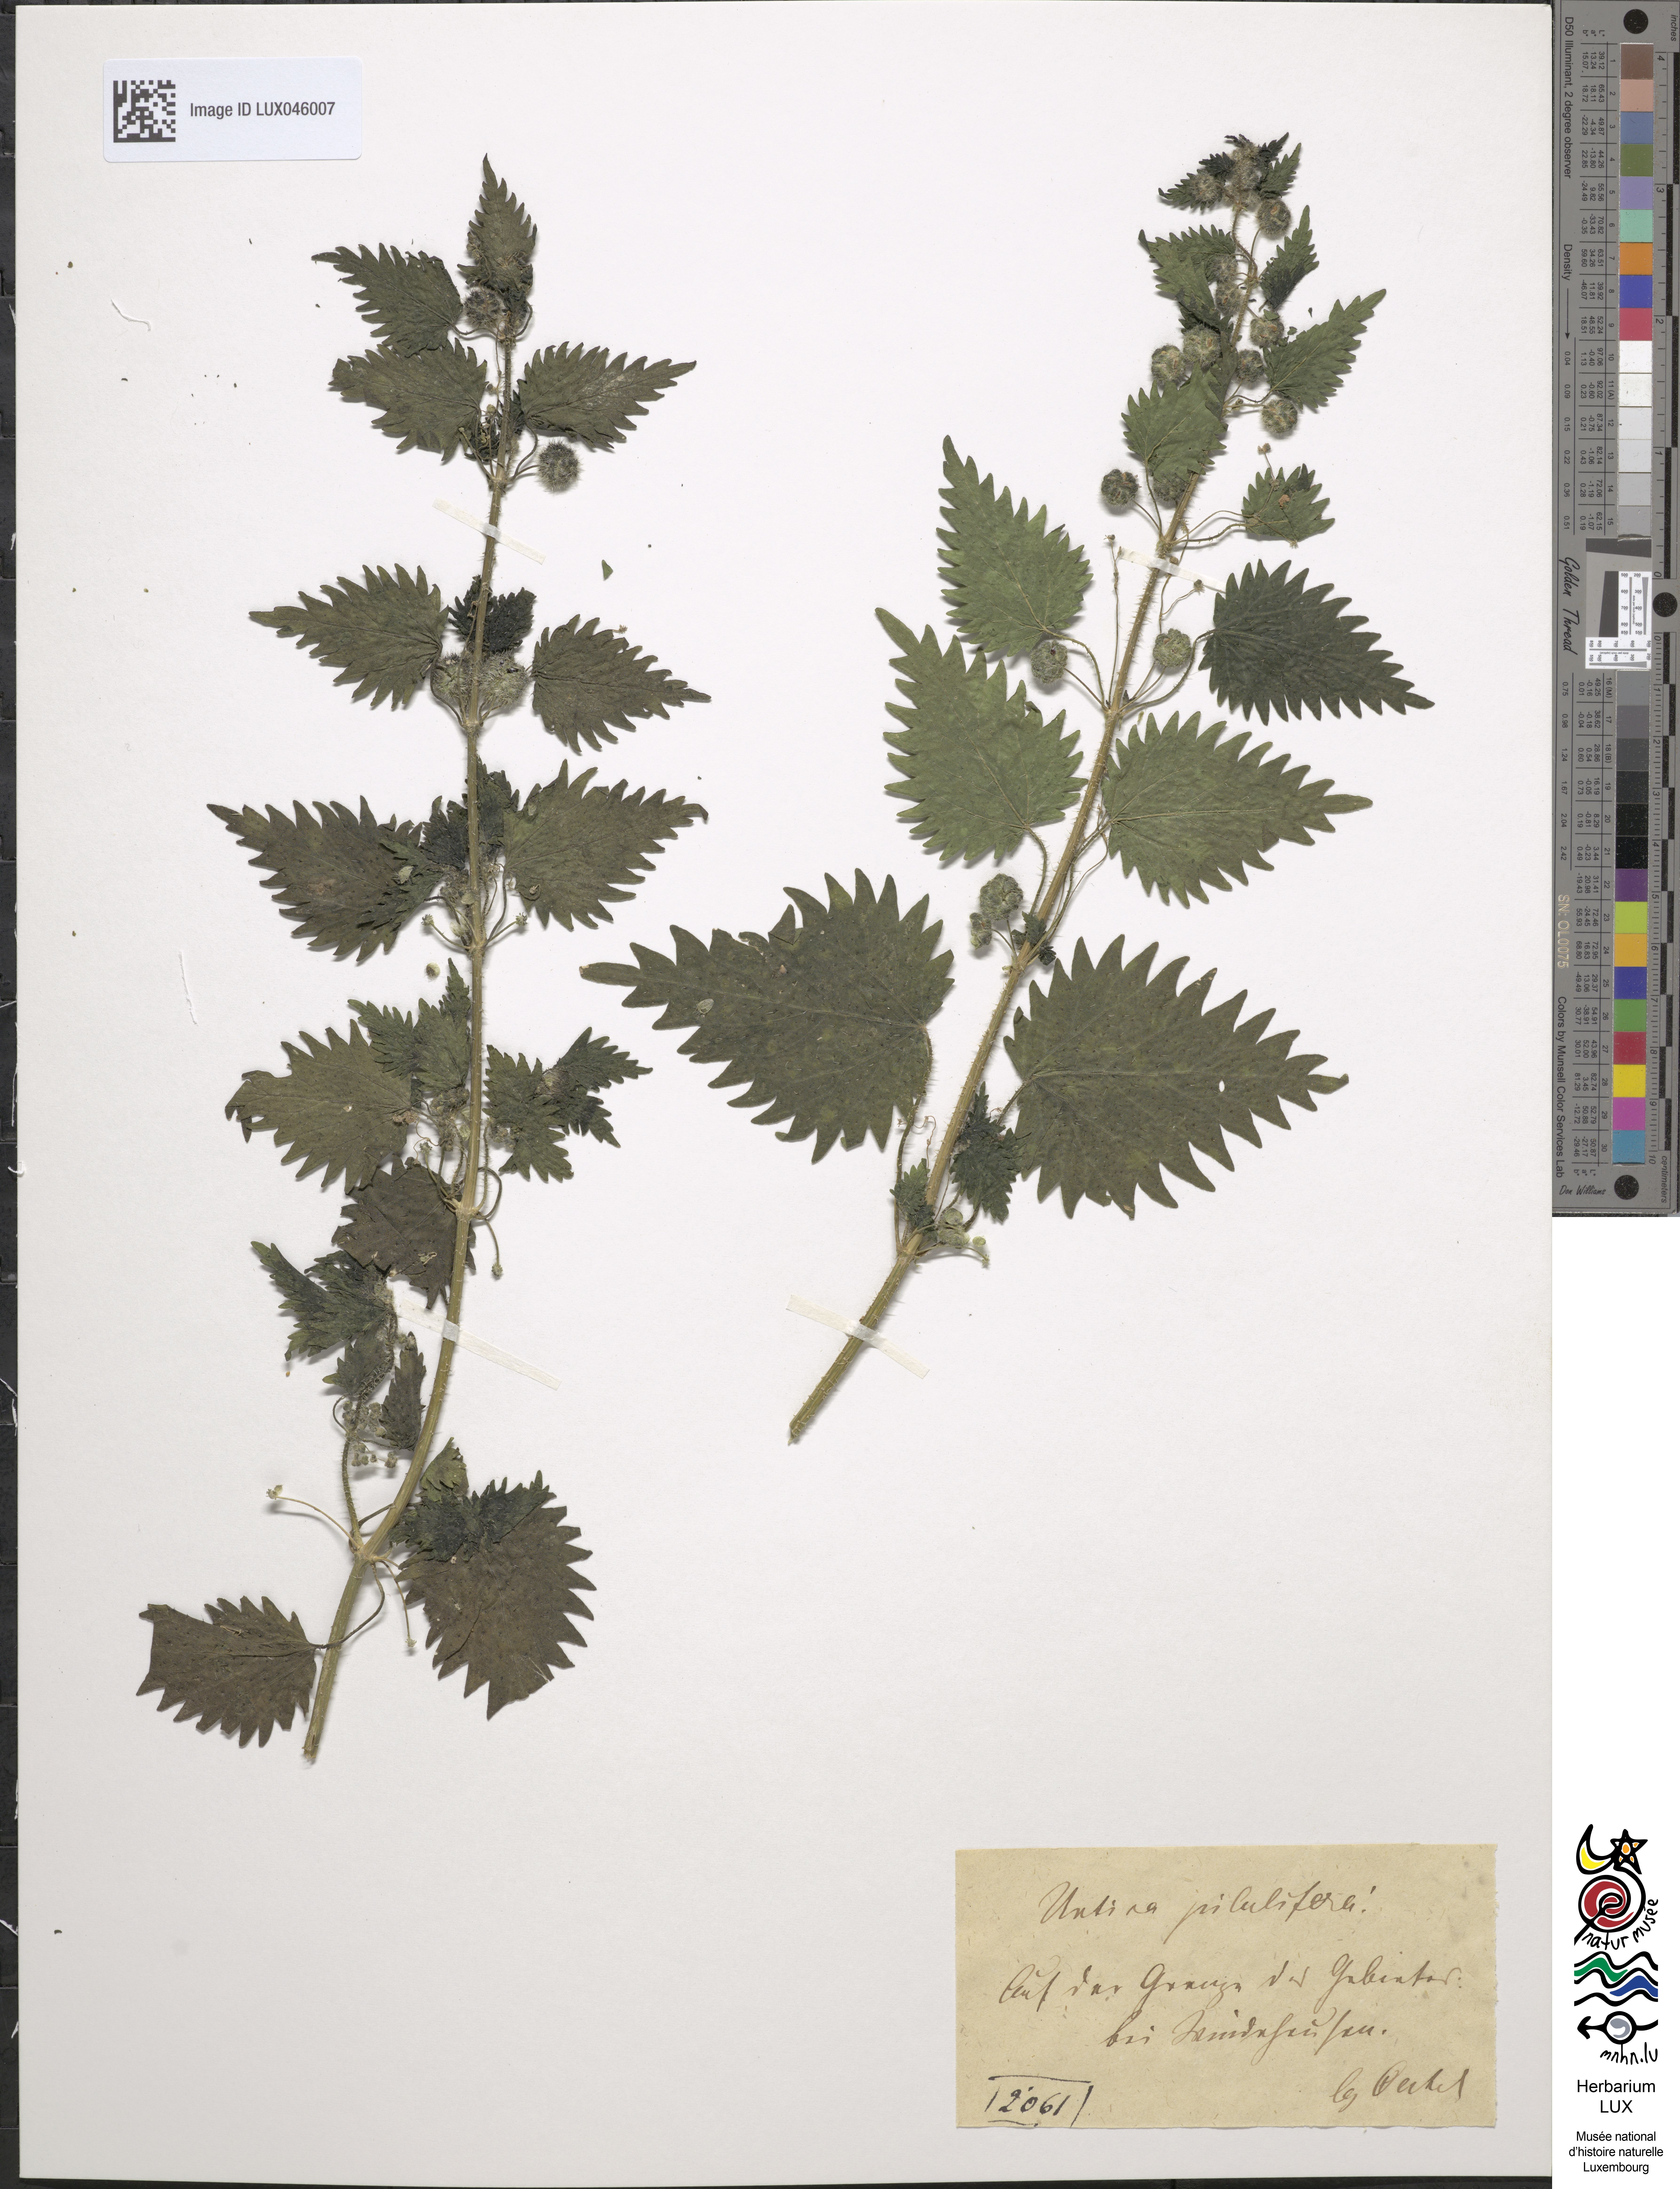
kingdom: Plantae
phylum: Tracheophyta
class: Magnoliopsida
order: Rosales
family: Urticaceae
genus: Urtica
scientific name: Urtica pilulifera
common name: Roman nettle
